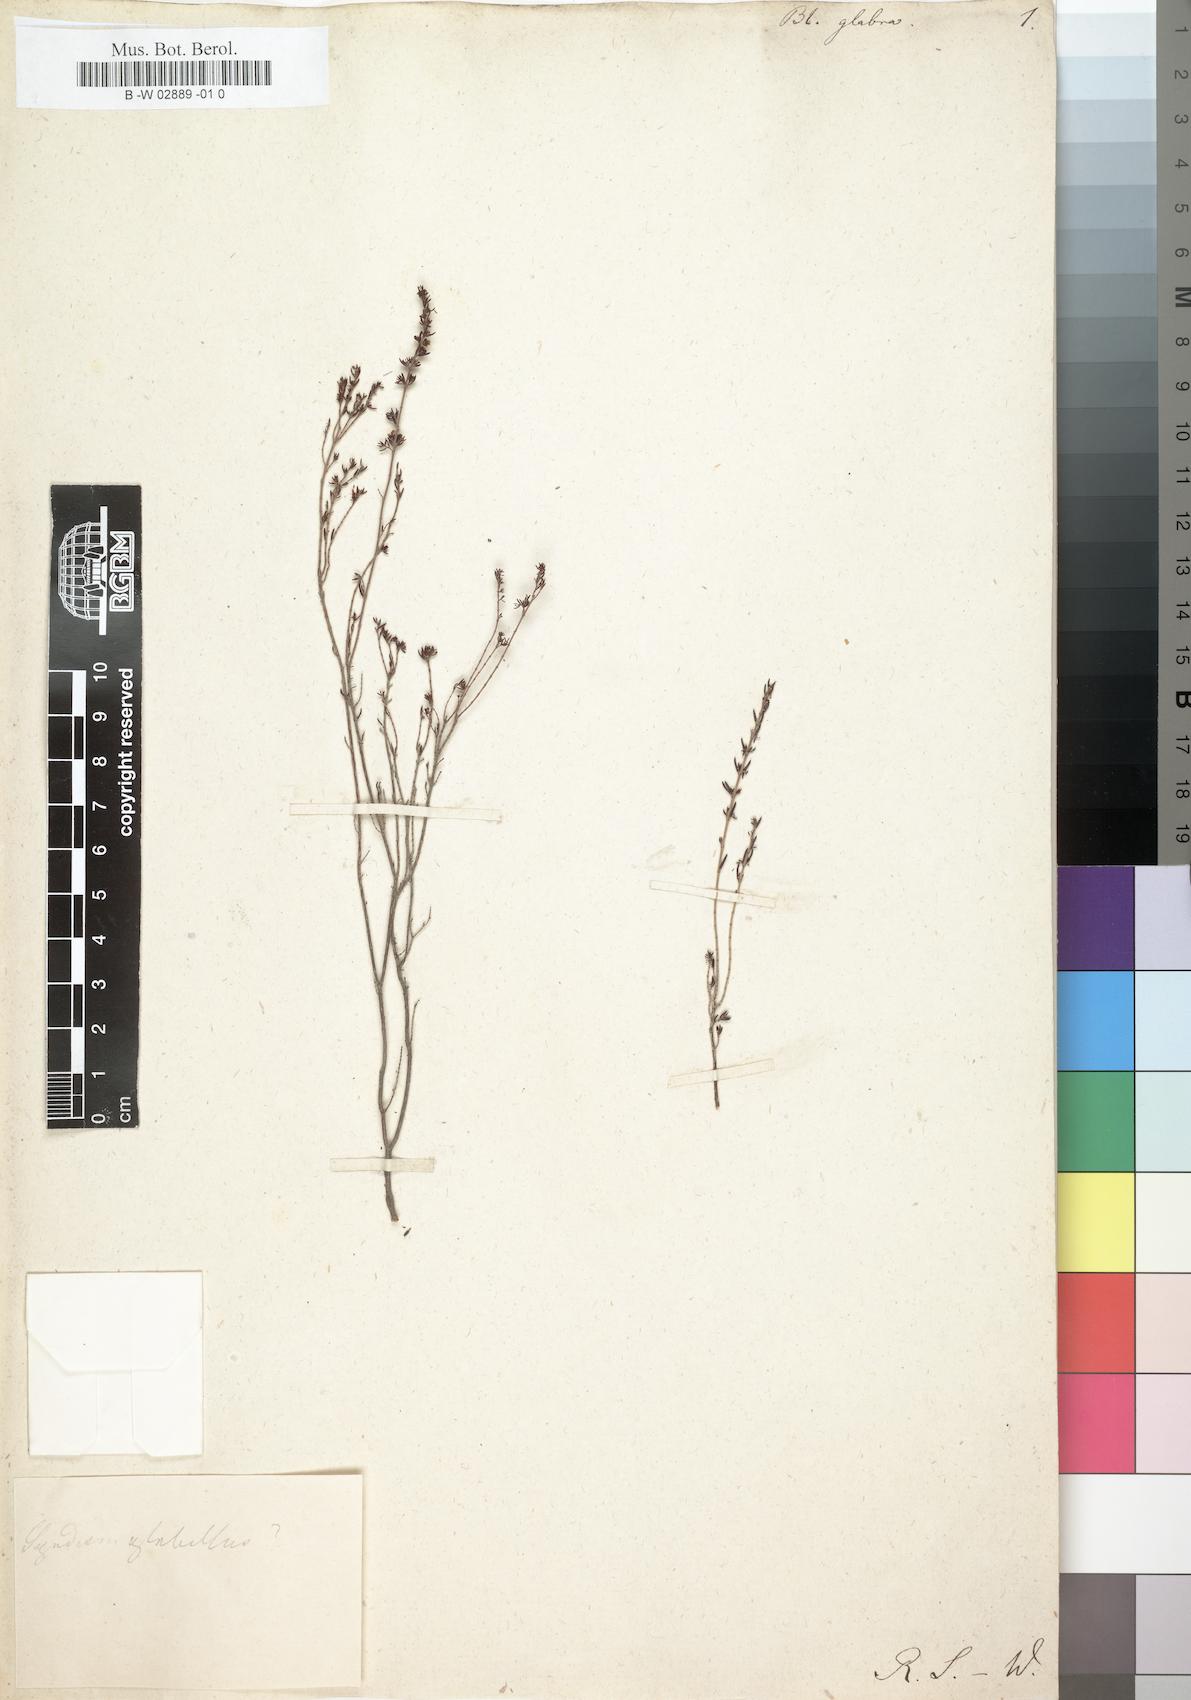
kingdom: Plantae
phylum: Tracheophyta
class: Magnoliopsida
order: Ericales
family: Ericaceae
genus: Erica
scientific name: Erica glabra
